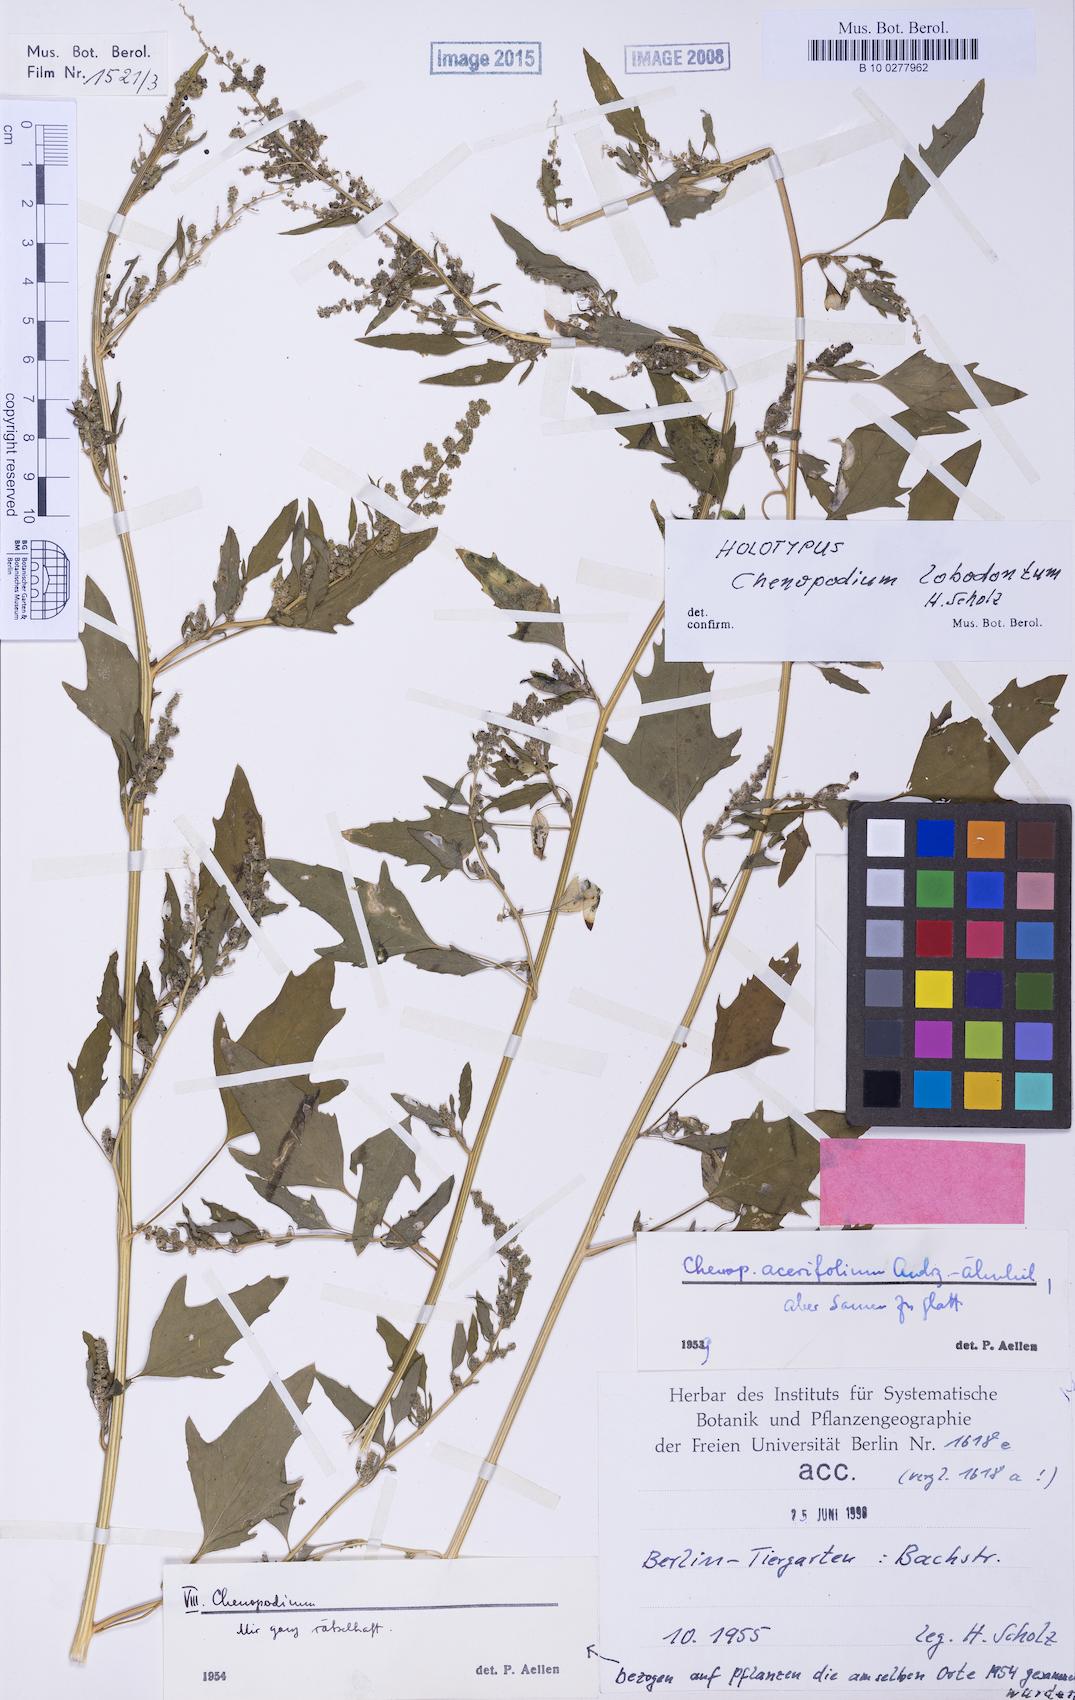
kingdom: Plantae
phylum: Tracheophyta
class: Magnoliopsida
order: Caryophyllales
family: Amaranthaceae
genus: Chenopodium
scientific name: Chenopodium lobodontum
